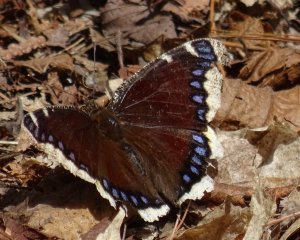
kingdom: Animalia
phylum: Arthropoda
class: Insecta
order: Lepidoptera
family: Nymphalidae
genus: Nymphalis
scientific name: Nymphalis antiopa
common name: Mourning Cloak
